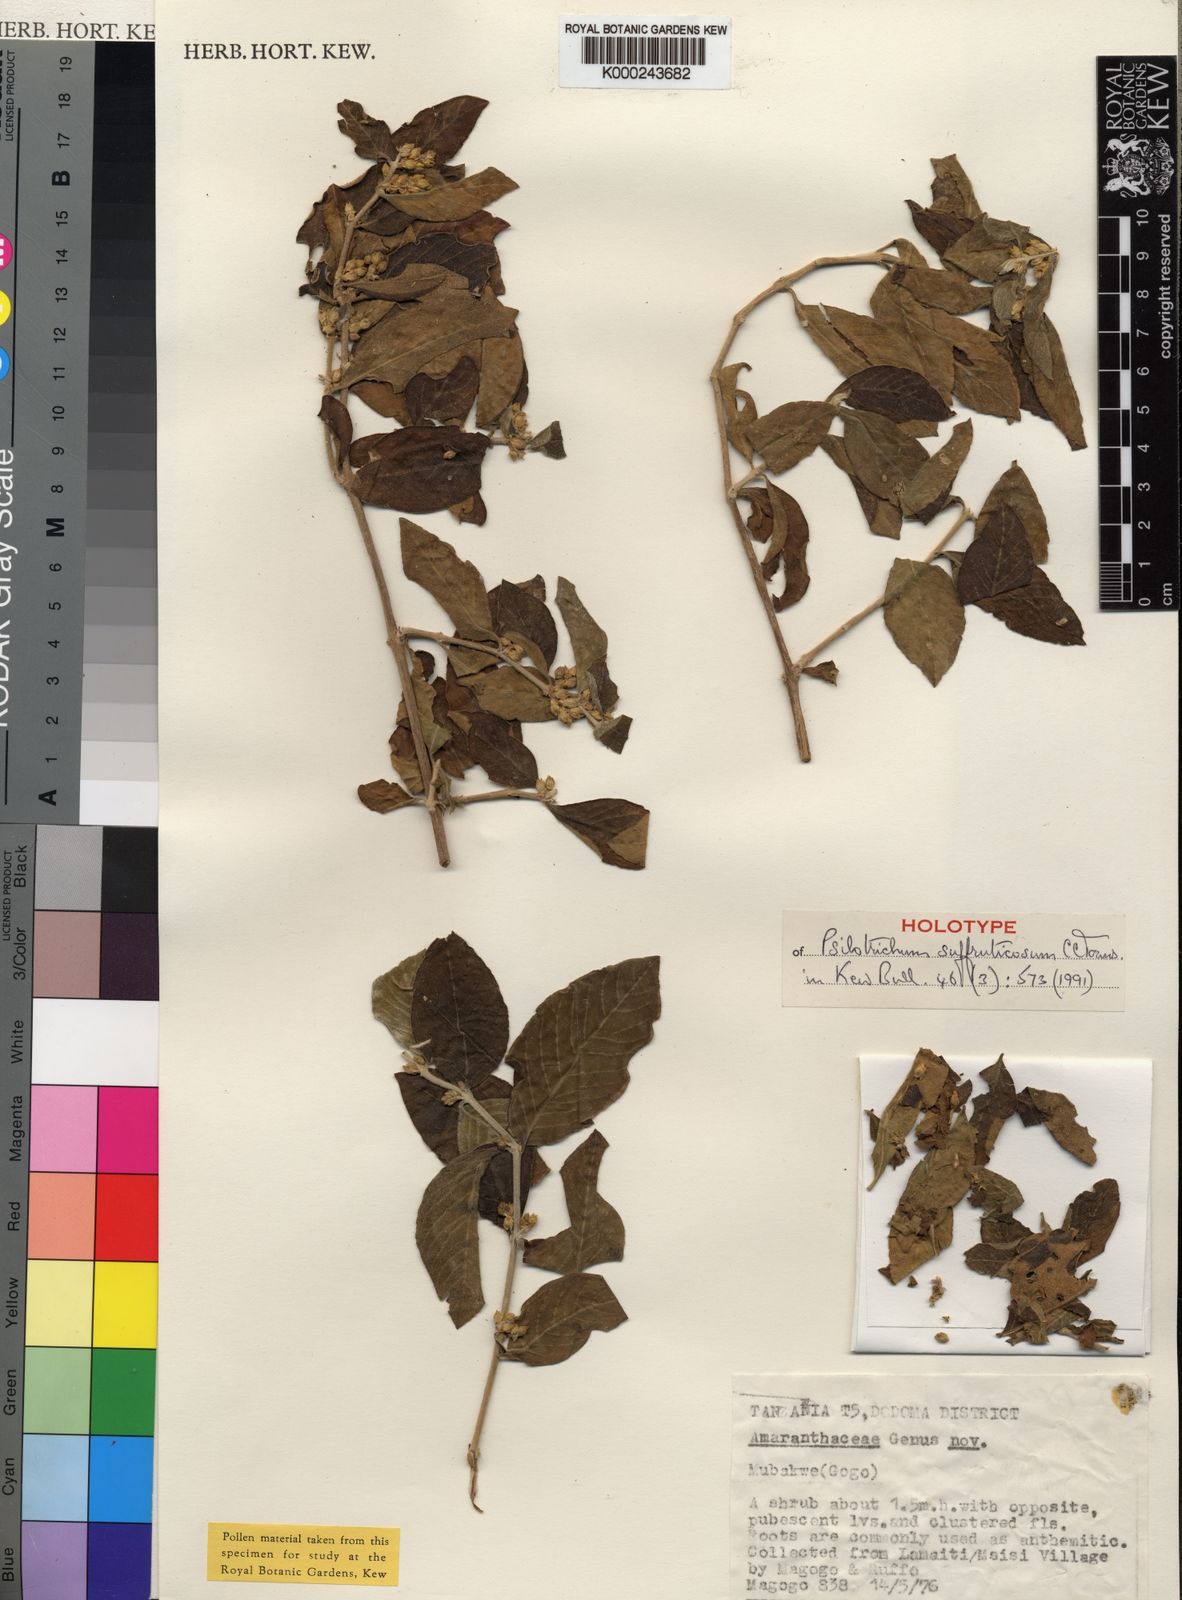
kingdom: Plantae
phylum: Tracheophyta
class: Magnoliopsida
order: Caryophyllales
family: Amaranthaceae
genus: Psilotrichum
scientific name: Psilotrichum suffruticosum
